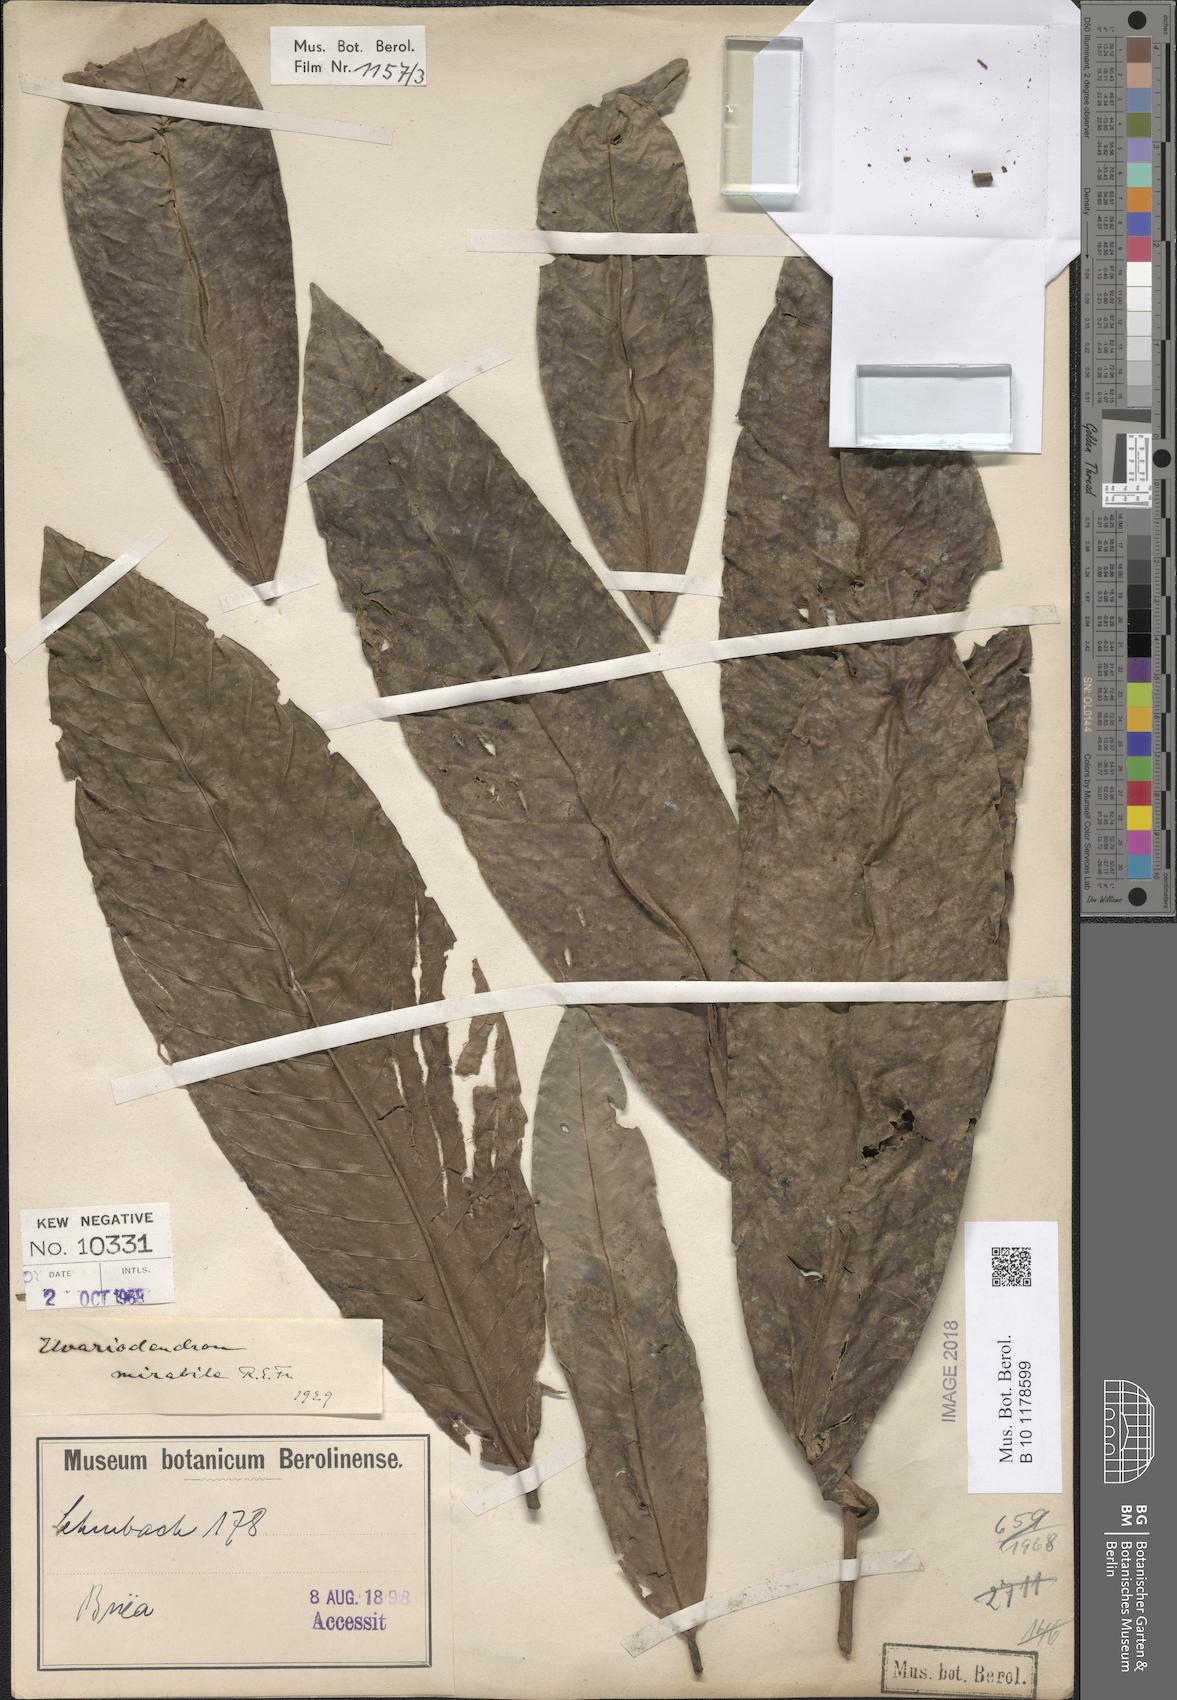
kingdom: Plantae
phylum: Tracheophyta
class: Magnoliopsida
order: Magnoliales
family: Annonaceae
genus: Uvariodendron
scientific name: Uvariodendron fuscum
